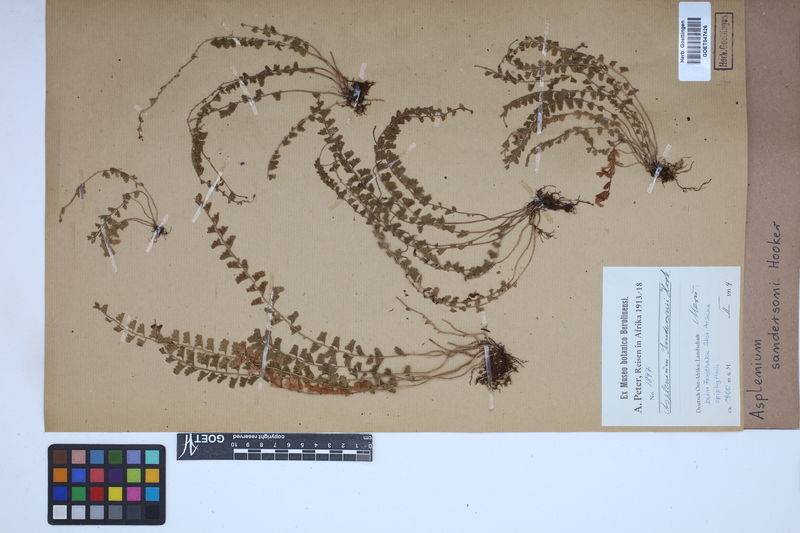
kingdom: Plantae
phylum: Tracheophyta
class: Polypodiopsida
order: Polypodiales
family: Aspleniaceae
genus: Asplenium
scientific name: Asplenium sandersonii
